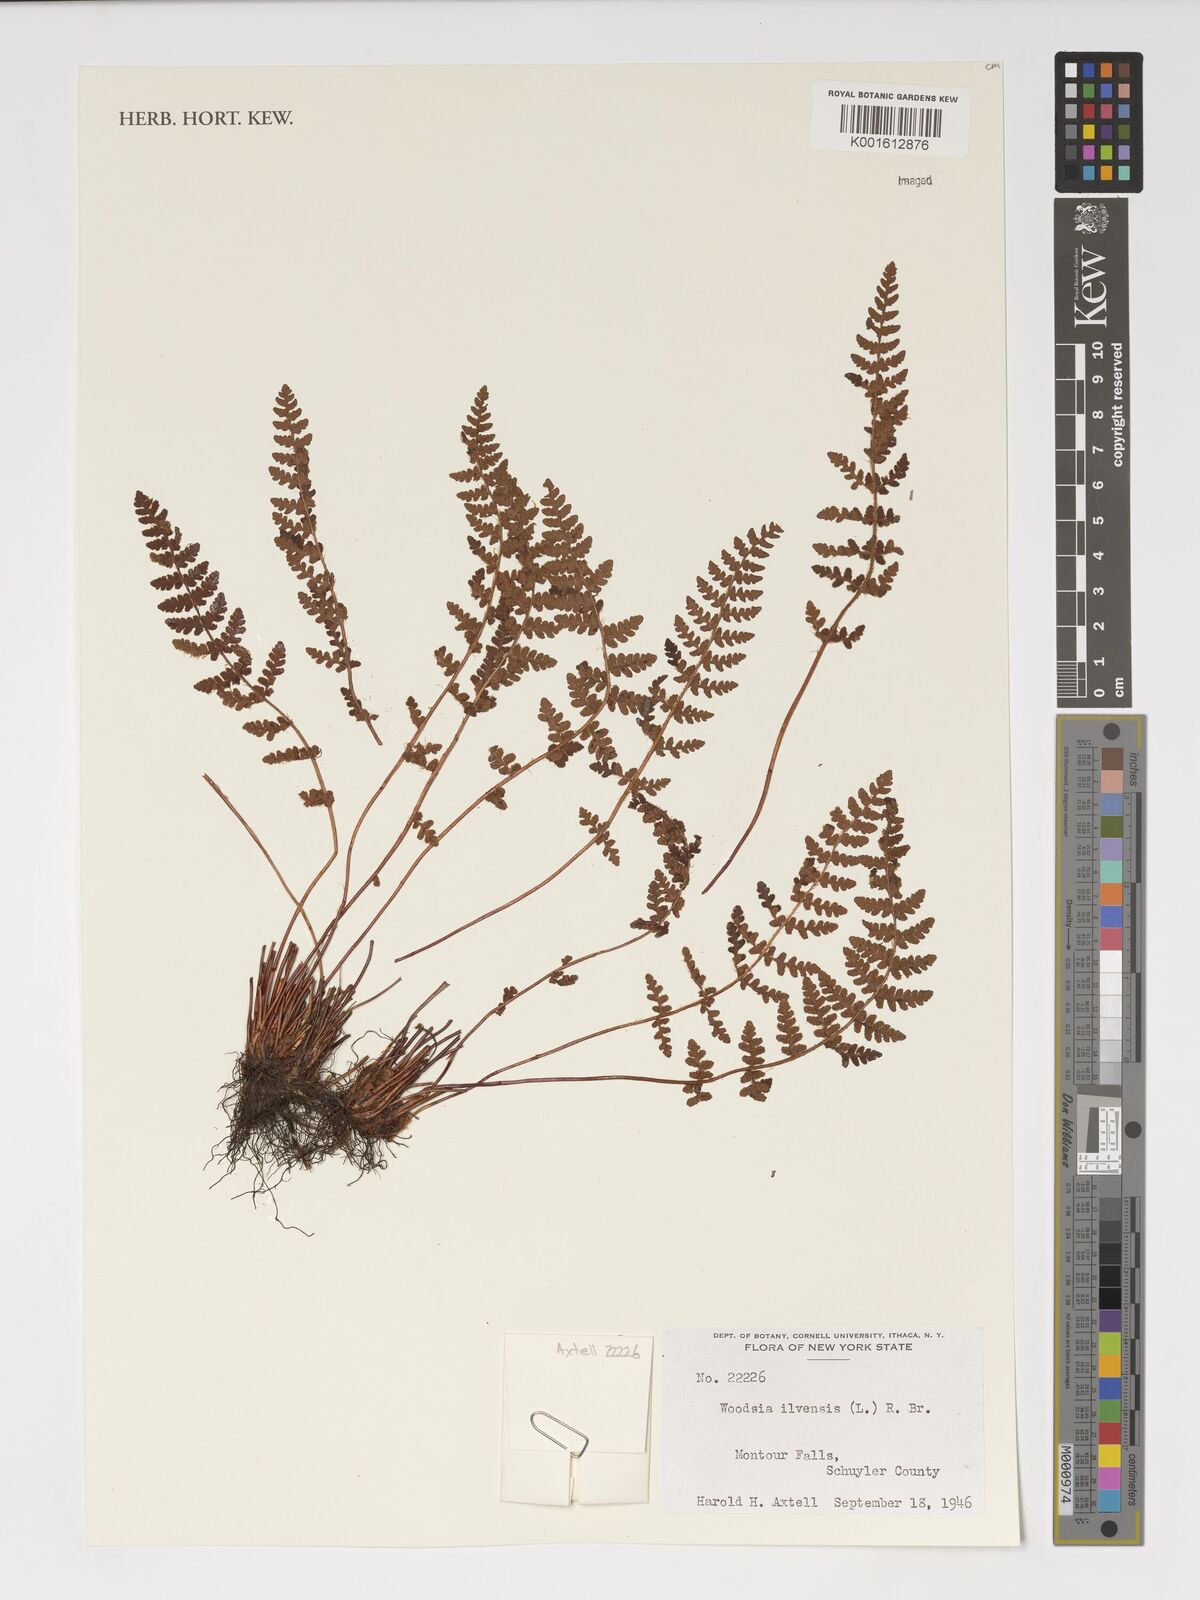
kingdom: Plantae
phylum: Tracheophyta
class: Polypodiopsida
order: Polypodiales
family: Woodsiaceae
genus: Woodsia
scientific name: Woodsia ilvensis
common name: Fragrant woodsia
